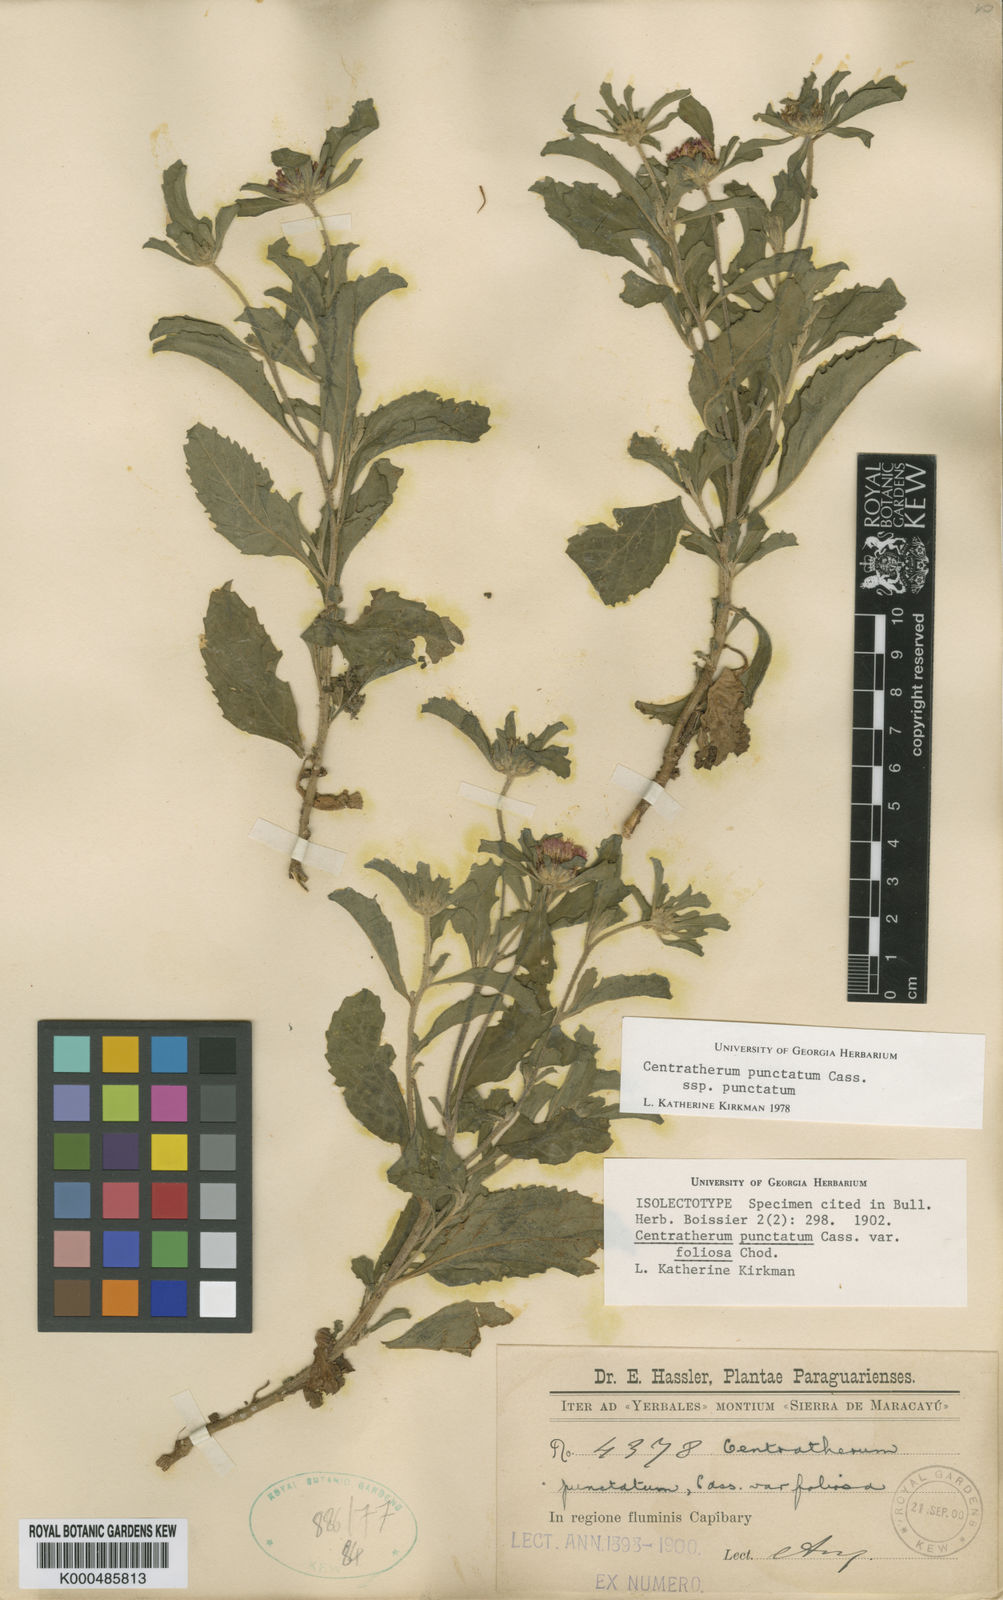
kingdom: Plantae
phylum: Tracheophyta
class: Magnoliopsida
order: Asterales
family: Asteraceae
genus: Centratherum
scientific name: Centratherum punctatum
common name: Larkdaisy
